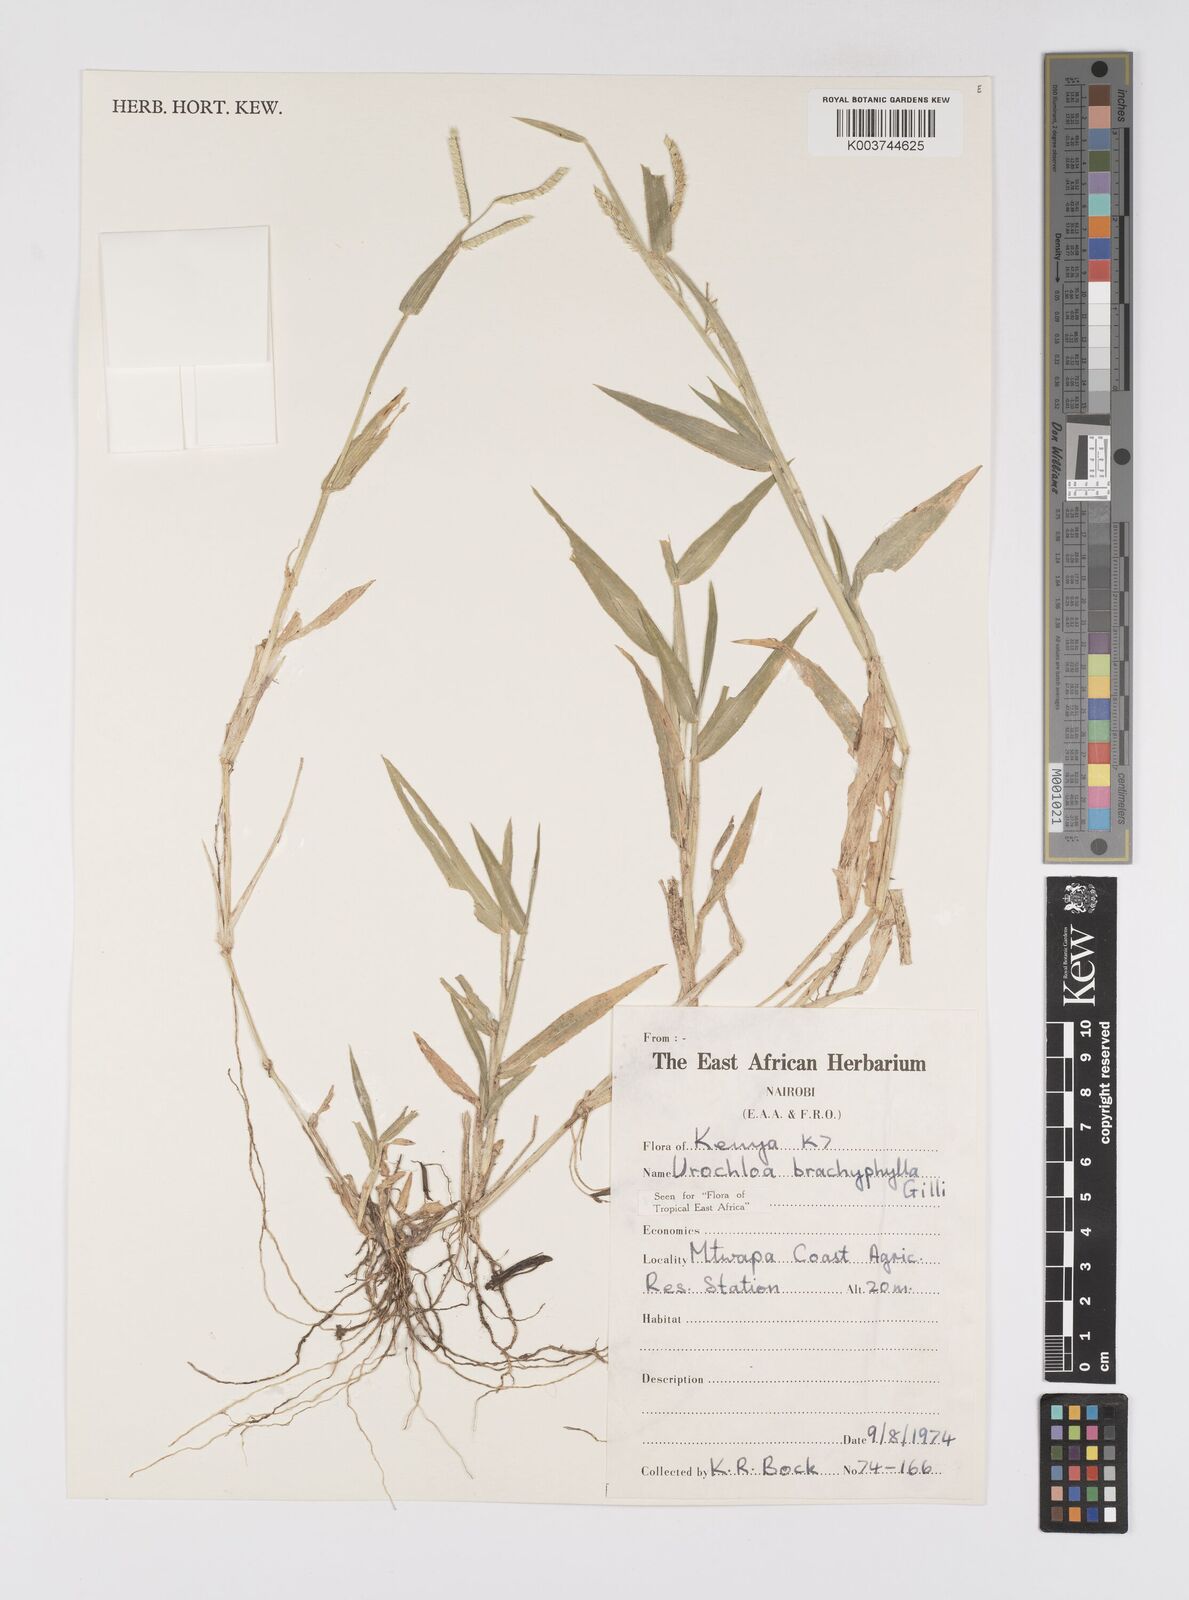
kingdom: Plantae
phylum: Tracheophyta
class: Liliopsida
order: Poales
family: Poaceae
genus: Urochloa
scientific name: Urochloa trichopus
